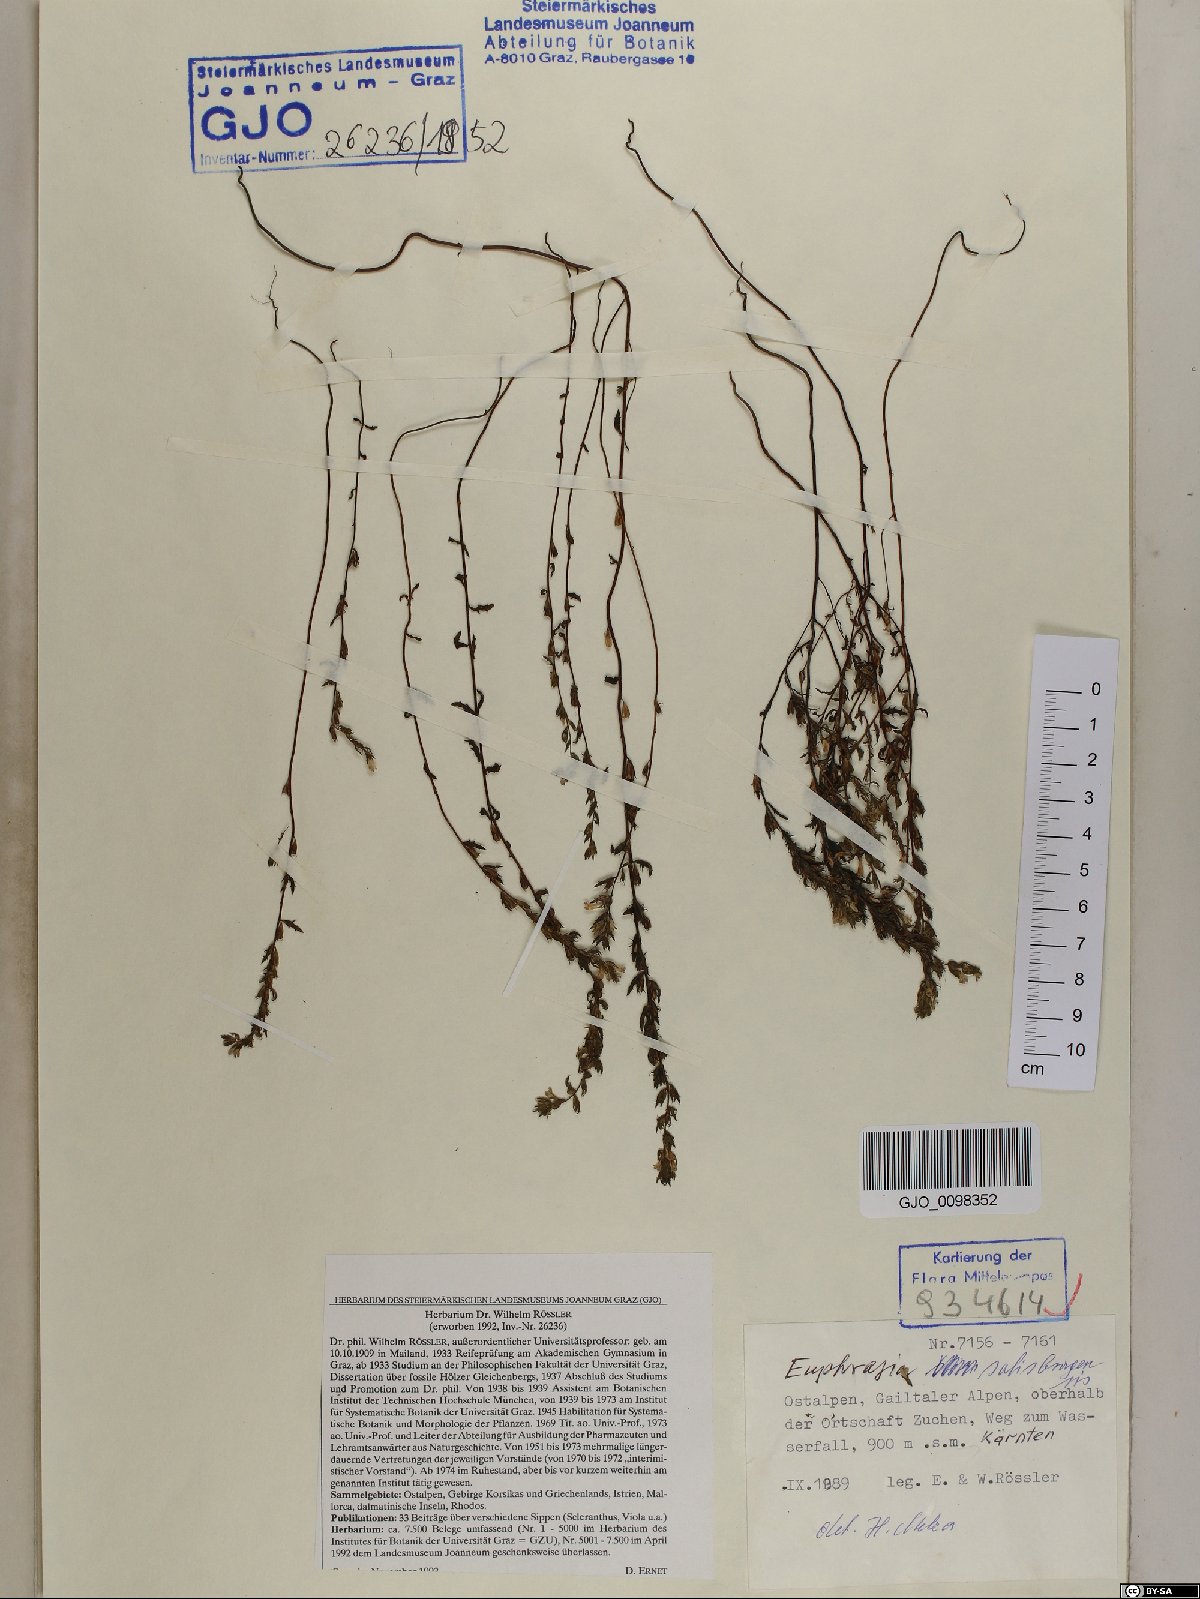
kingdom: Plantae
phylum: Tracheophyta
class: Magnoliopsida
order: Lamiales
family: Orobanchaceae
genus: Euphrasia
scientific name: Euphrasia salisburgensis
